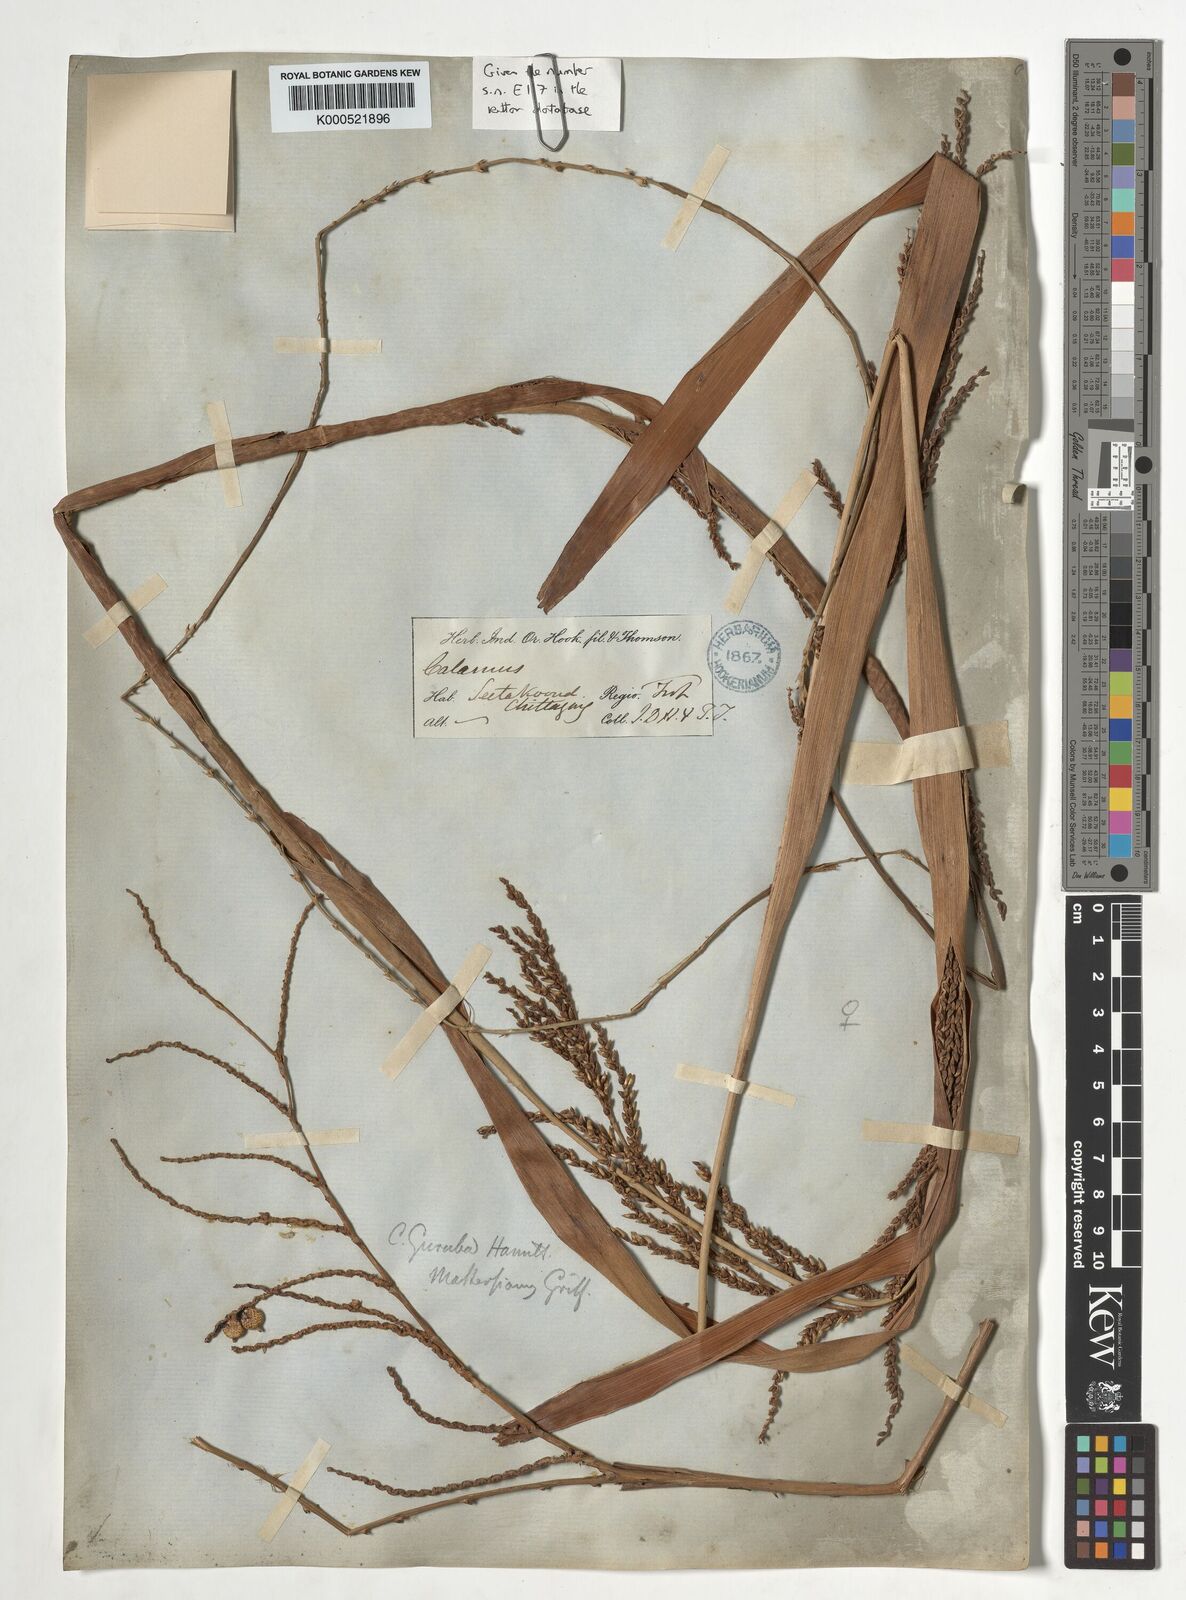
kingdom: Plantae
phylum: Tracheophyta
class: Liliopsida
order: Arecales
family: Arecaceae
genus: Calamus
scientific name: Calamus
